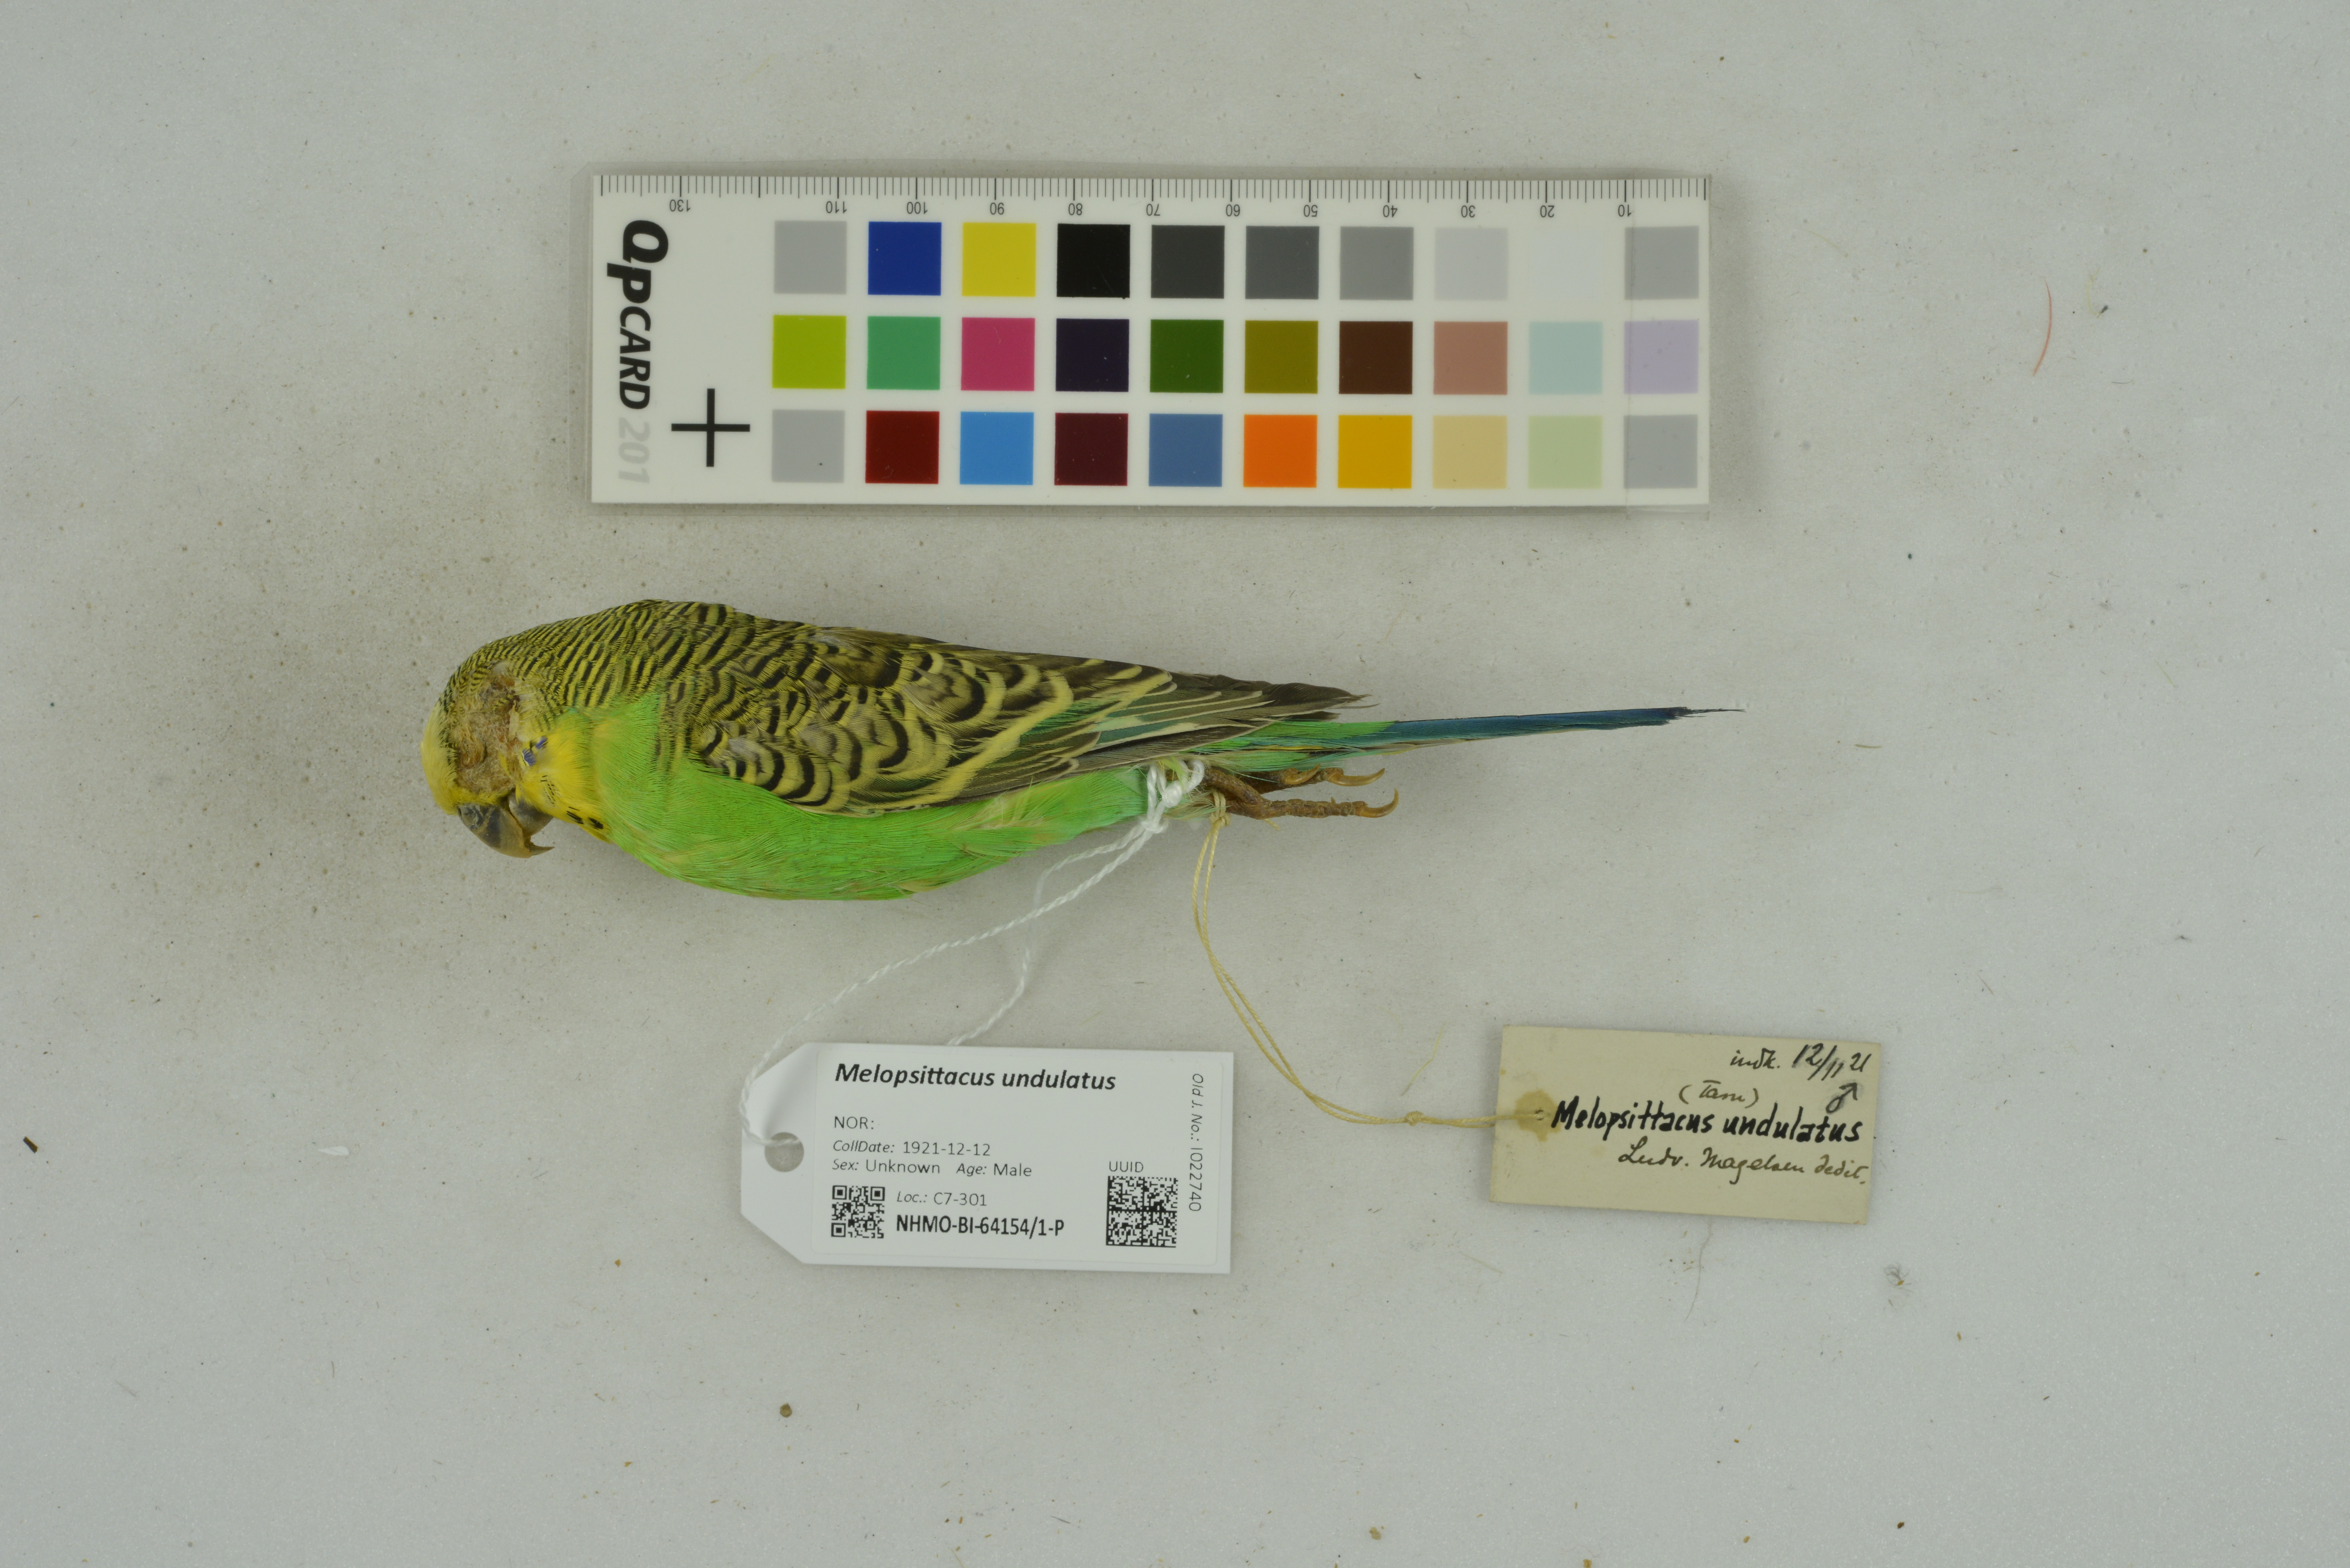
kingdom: Animalia
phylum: Chordata
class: Aves
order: Psittaciformes
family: Psittacidae
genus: Melopsittacus
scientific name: Melopsittacus undulatus
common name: Budgerigar
